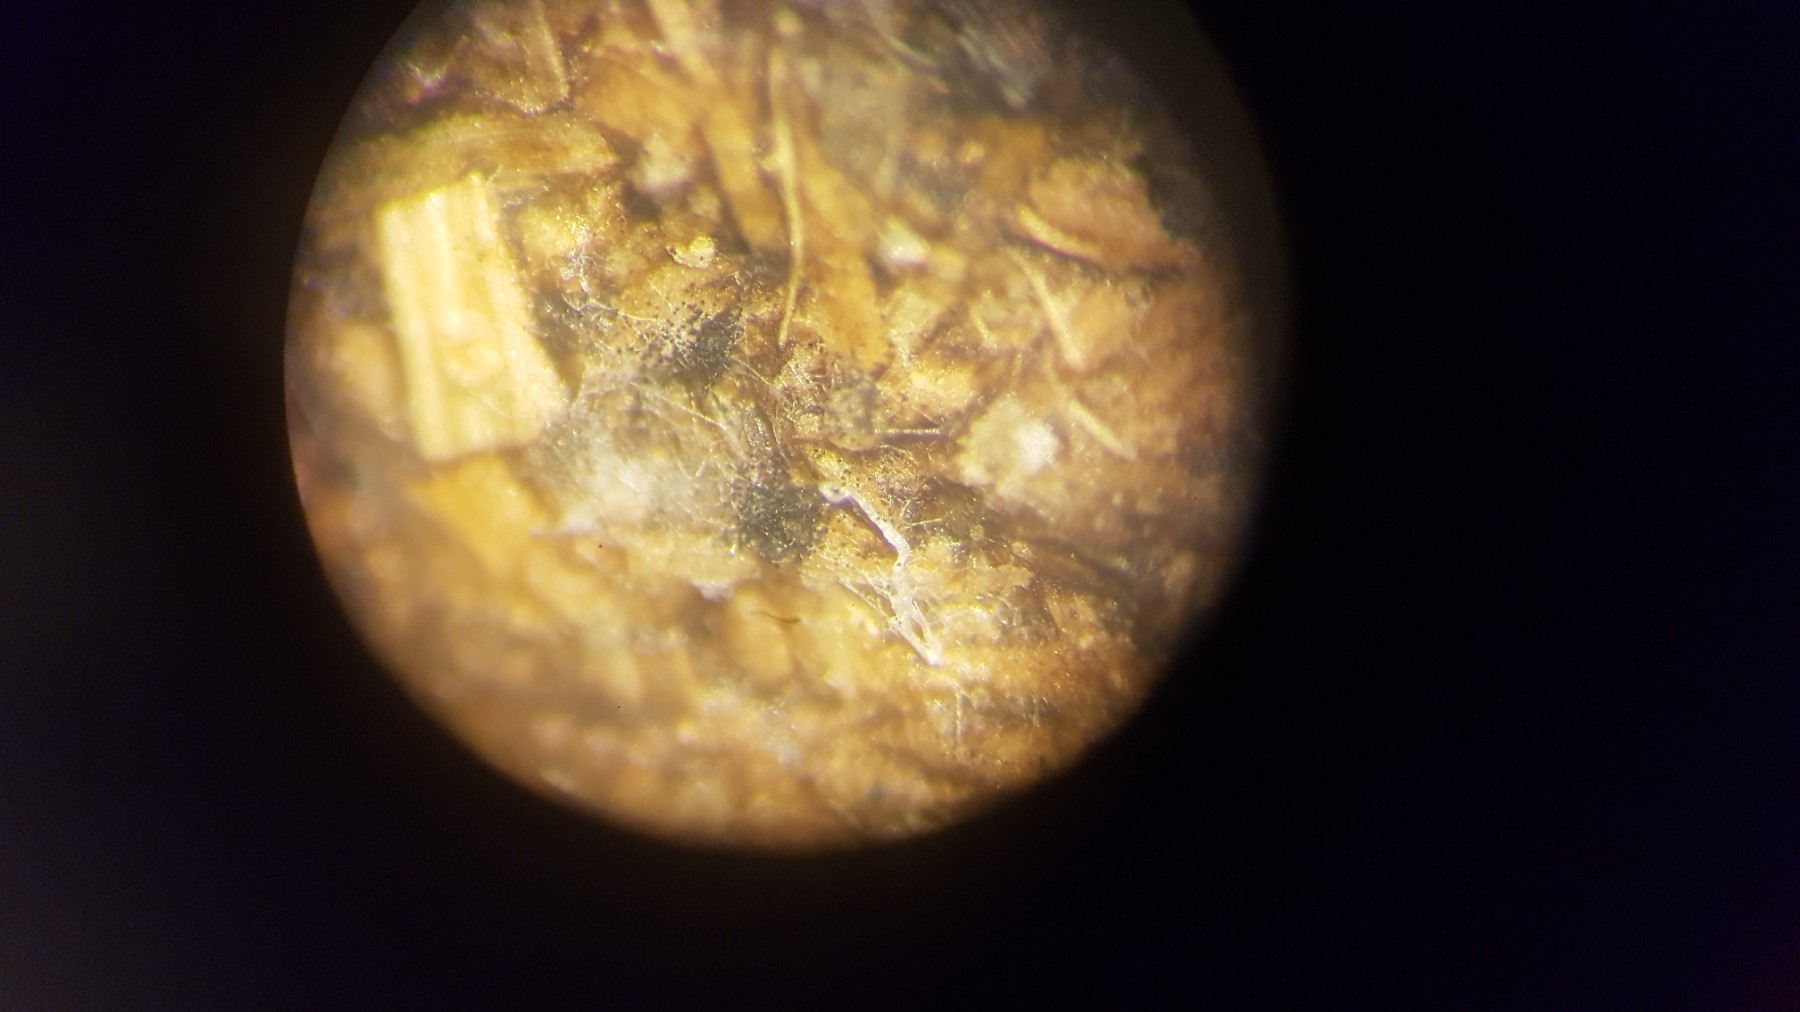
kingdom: Fungi
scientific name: Fungi
